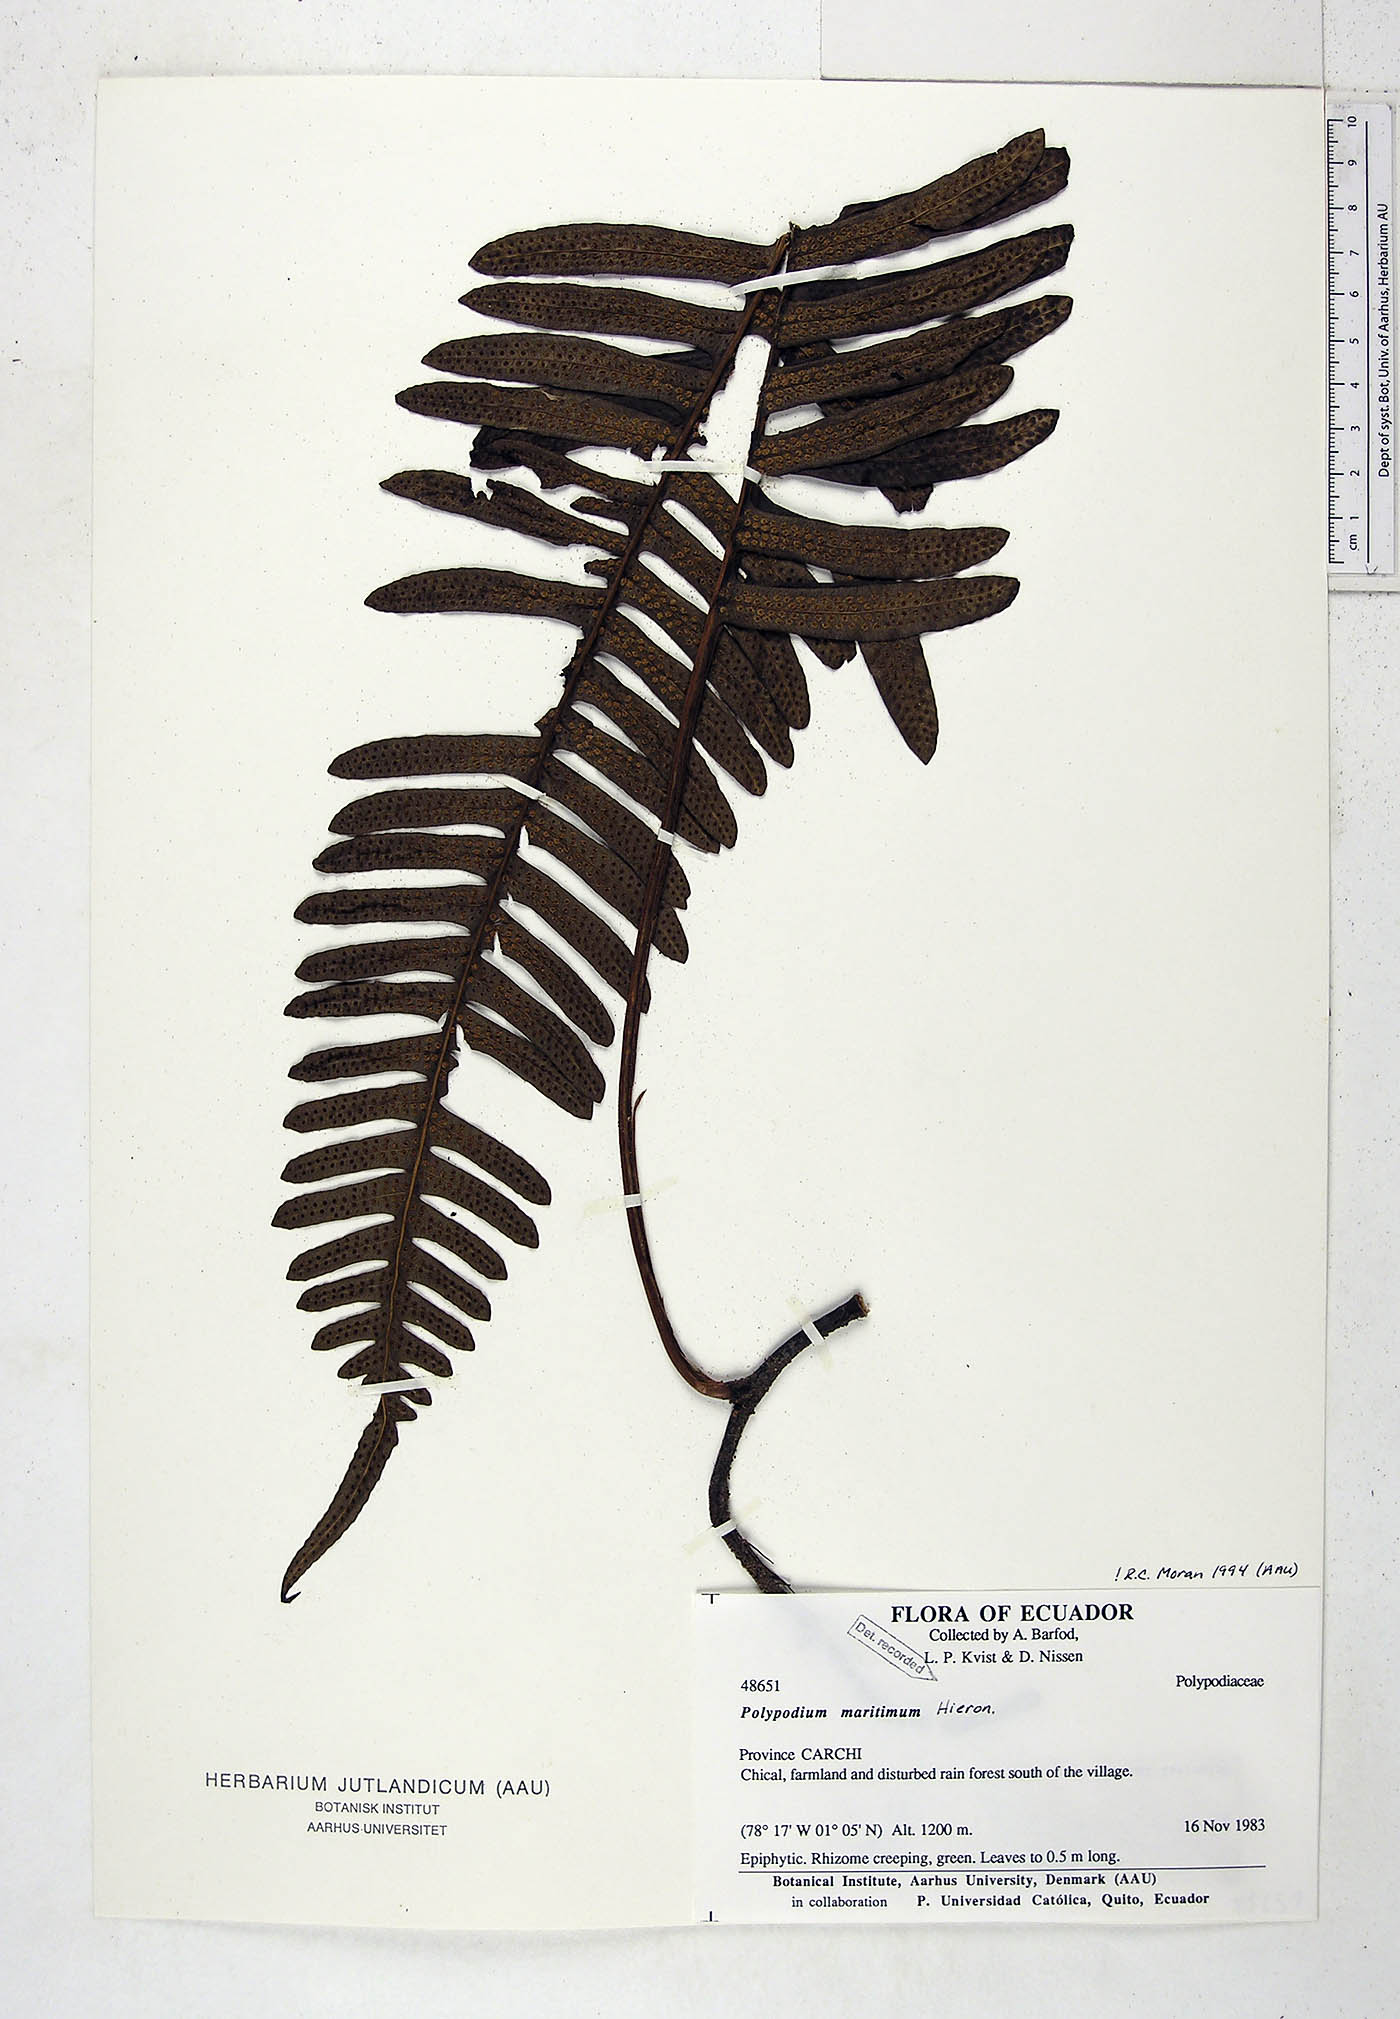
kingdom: Plantae
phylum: Tracheophyta
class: Polypodiopsida
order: Polypodiales
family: Polypodiaceae
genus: Serpocaulon
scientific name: Serpocaulon maritimum
